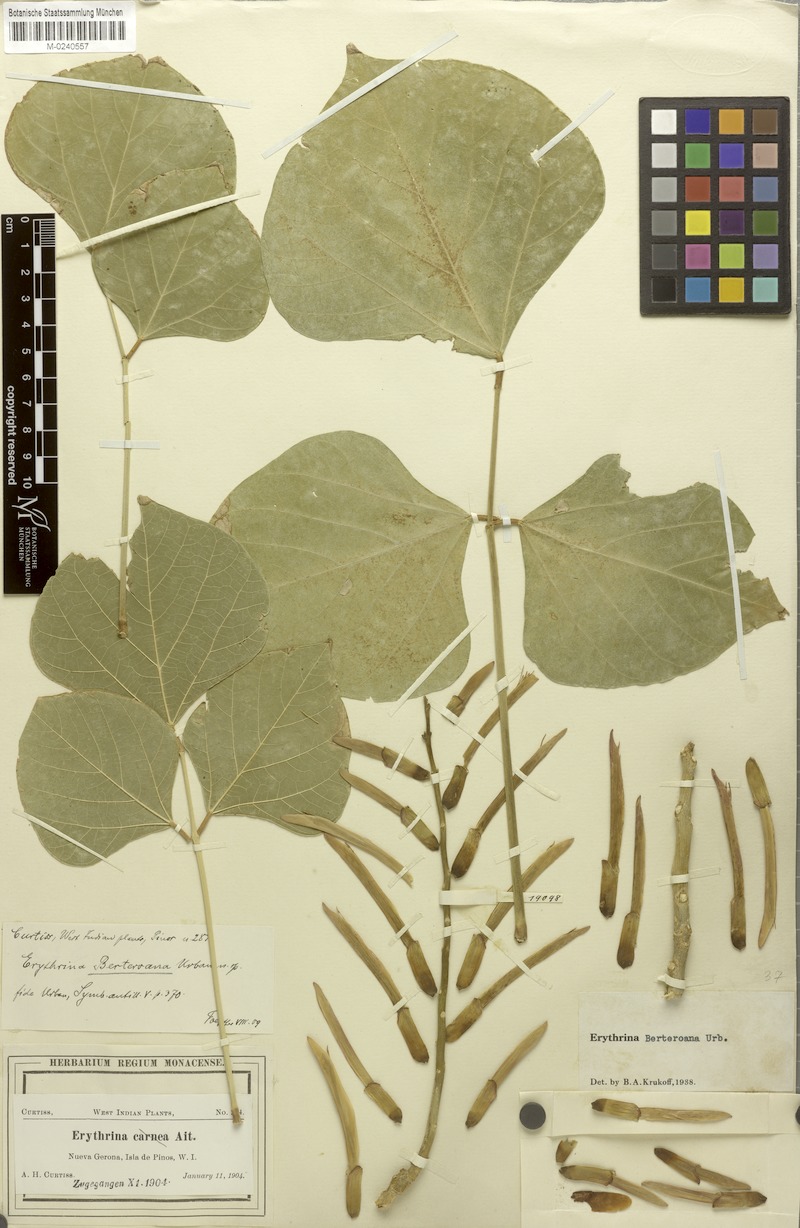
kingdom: Plantae
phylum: Tracheophyta
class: Magnoliopsida
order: Fabales
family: Fabaceae
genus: Erythrina
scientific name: Erythrina berteroana
